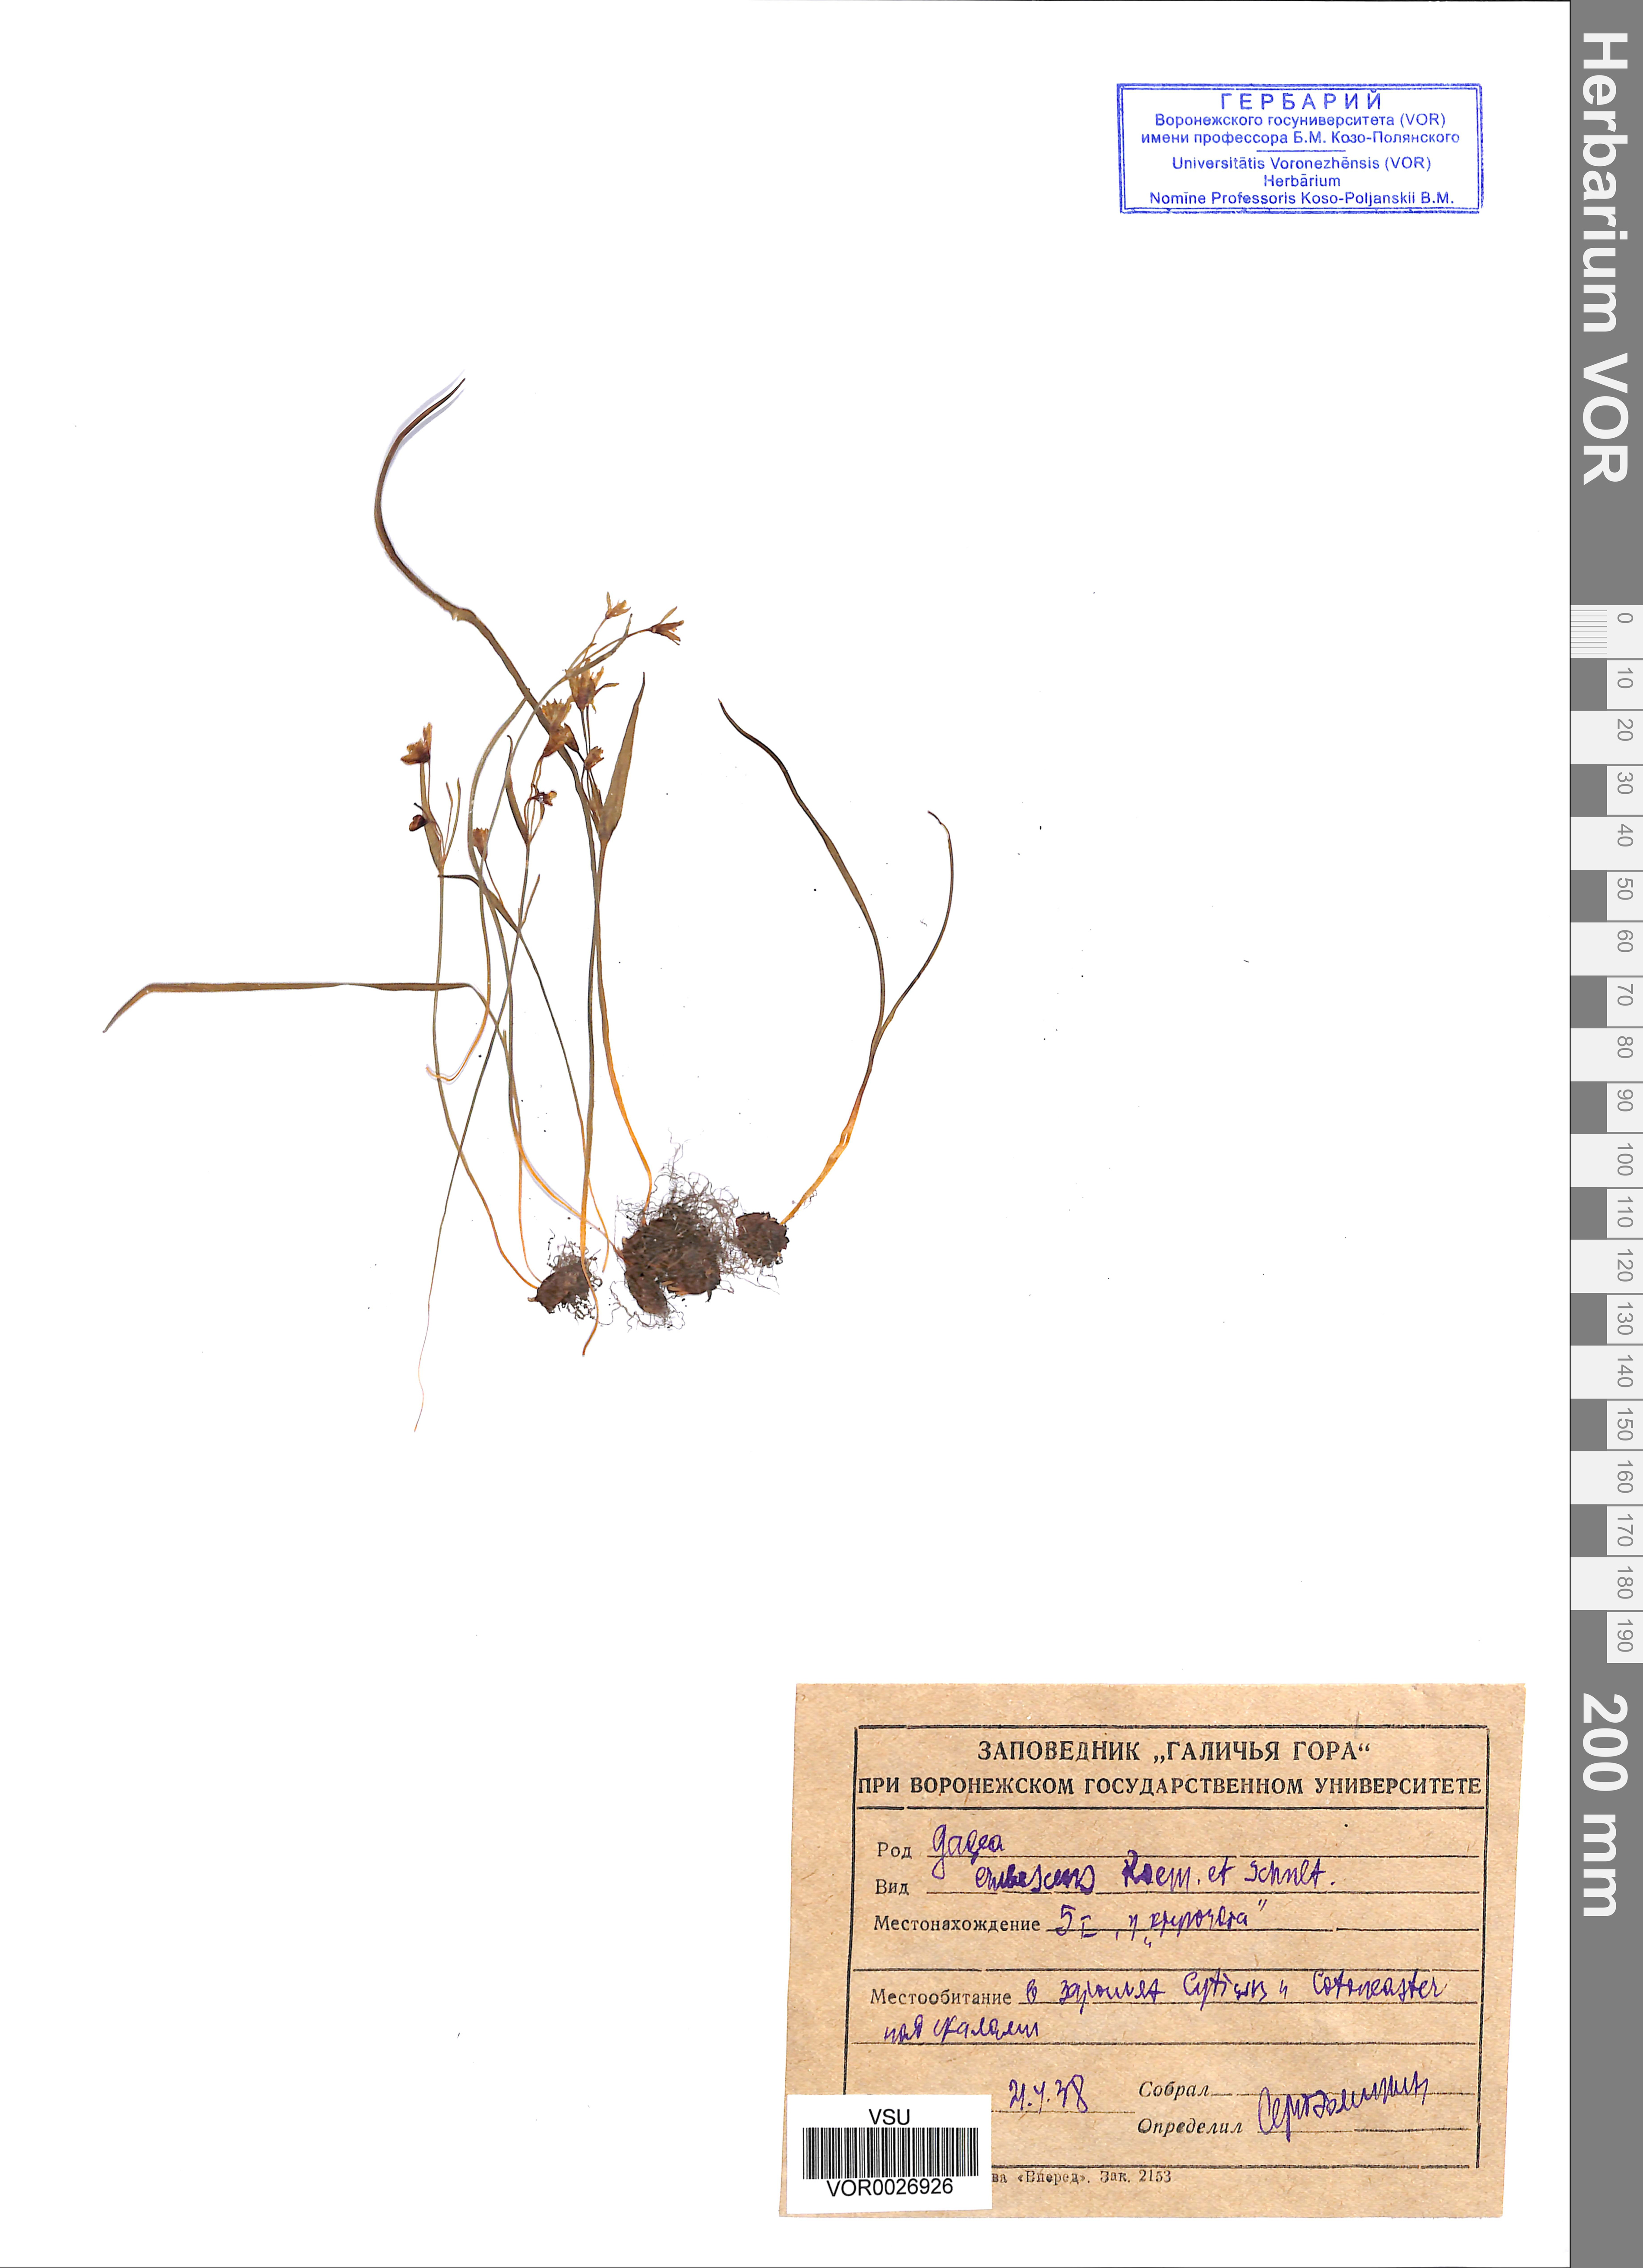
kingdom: Plantae
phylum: Tracheophyta
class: Liliopsida
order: Liliales
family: Liliaceae
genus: Gagea
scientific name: Gagea fragifera
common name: Lily
